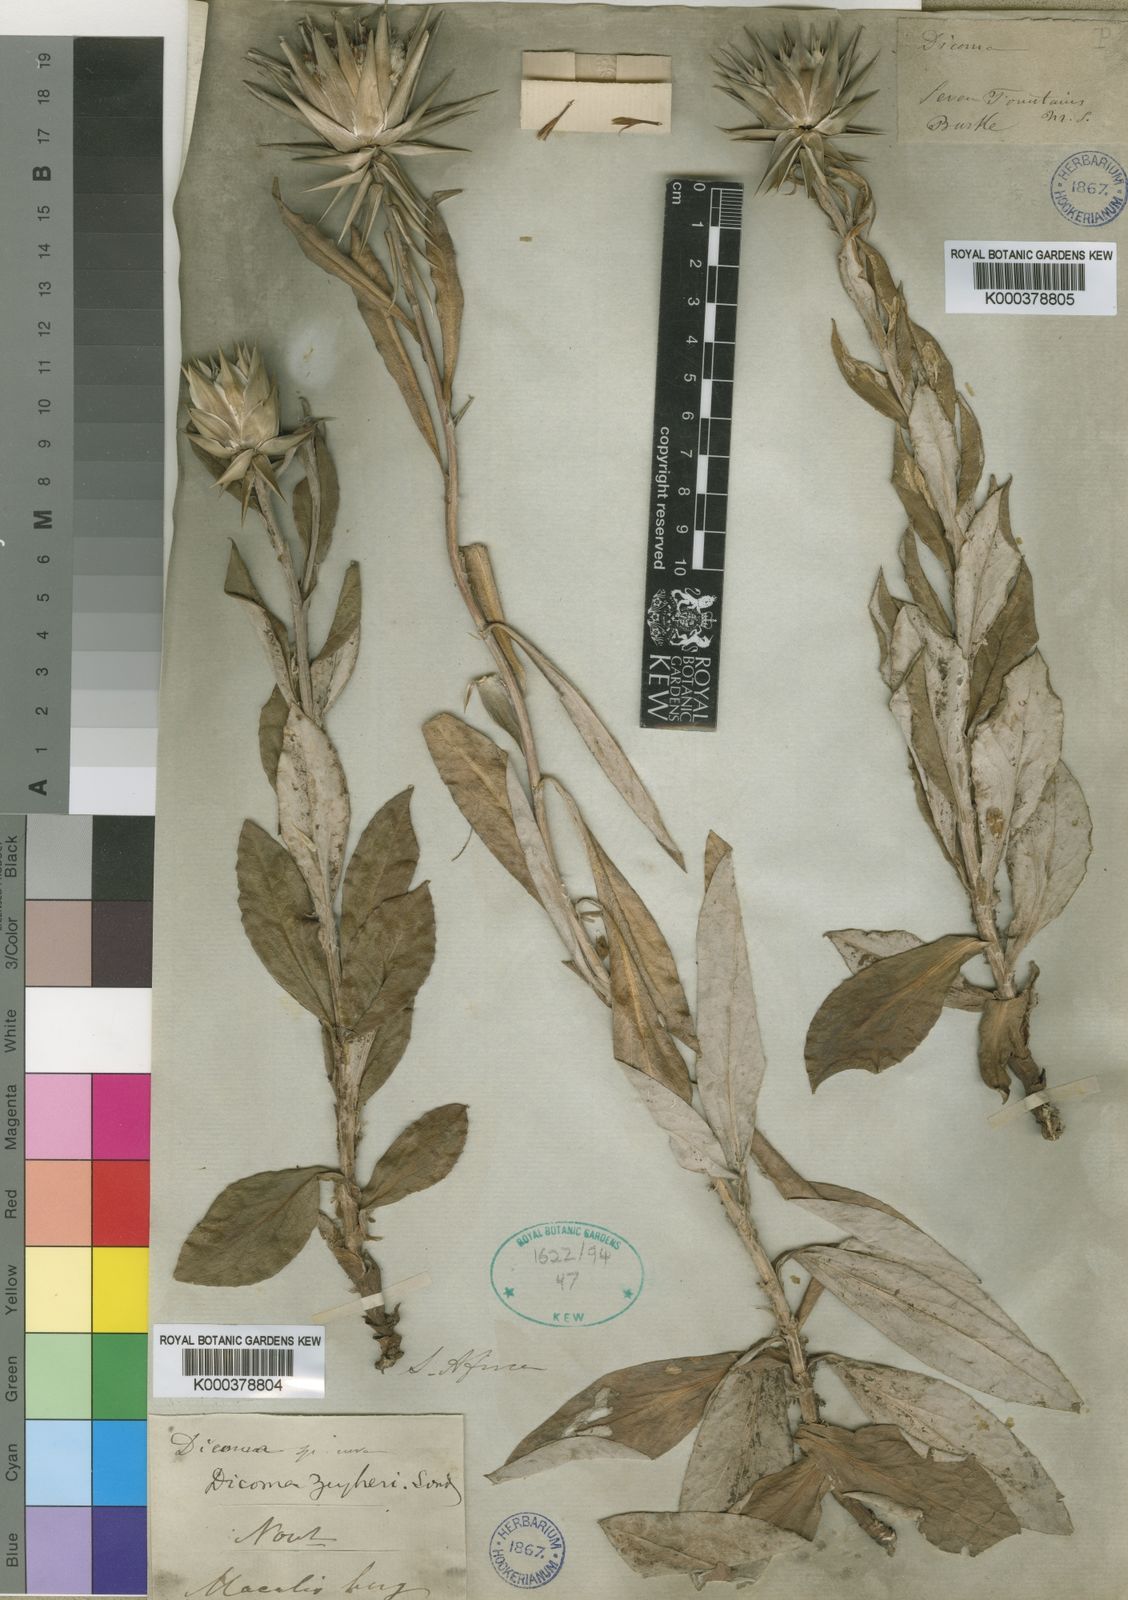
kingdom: Plantae
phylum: Tracheophyta
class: Magnoliopsida
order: Asterales
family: Asteraceae
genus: Macledium
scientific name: Macledium zeyheri
